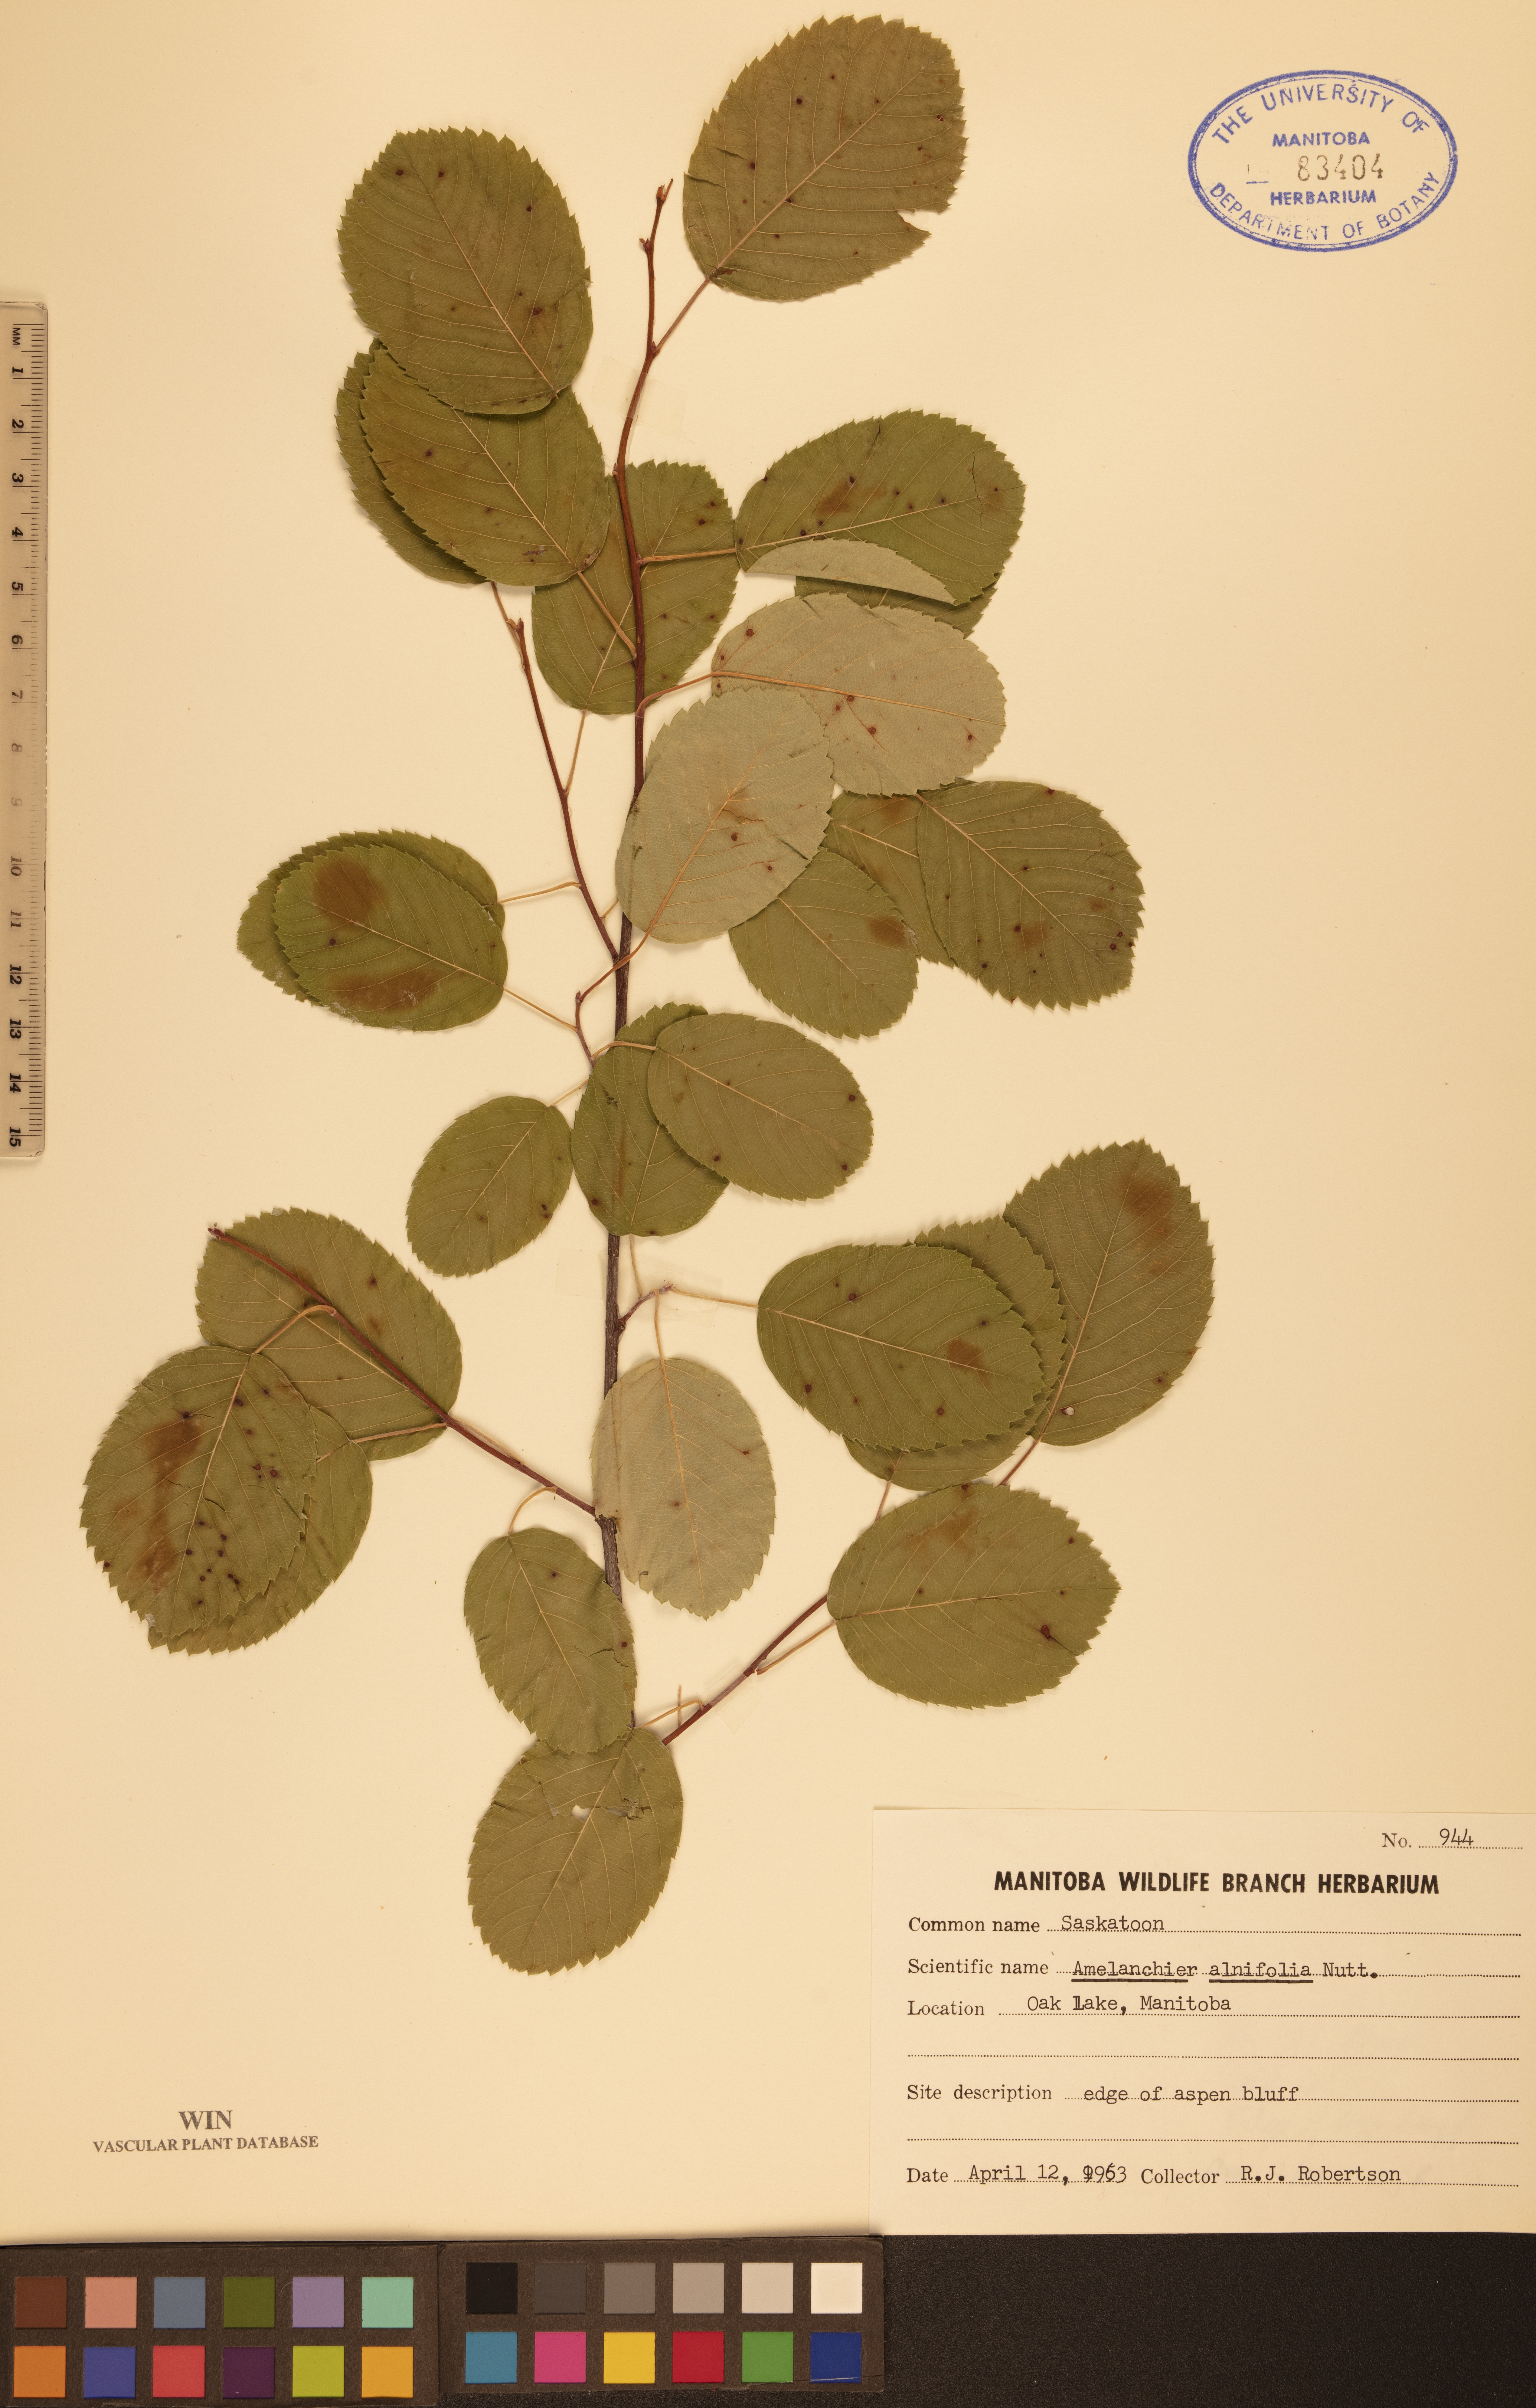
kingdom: Plantae
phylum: Tracheophyta
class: Magnoliopsida
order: Rosales
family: Rosaceae
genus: Amelanchier
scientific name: Amelanchier alnifolia
